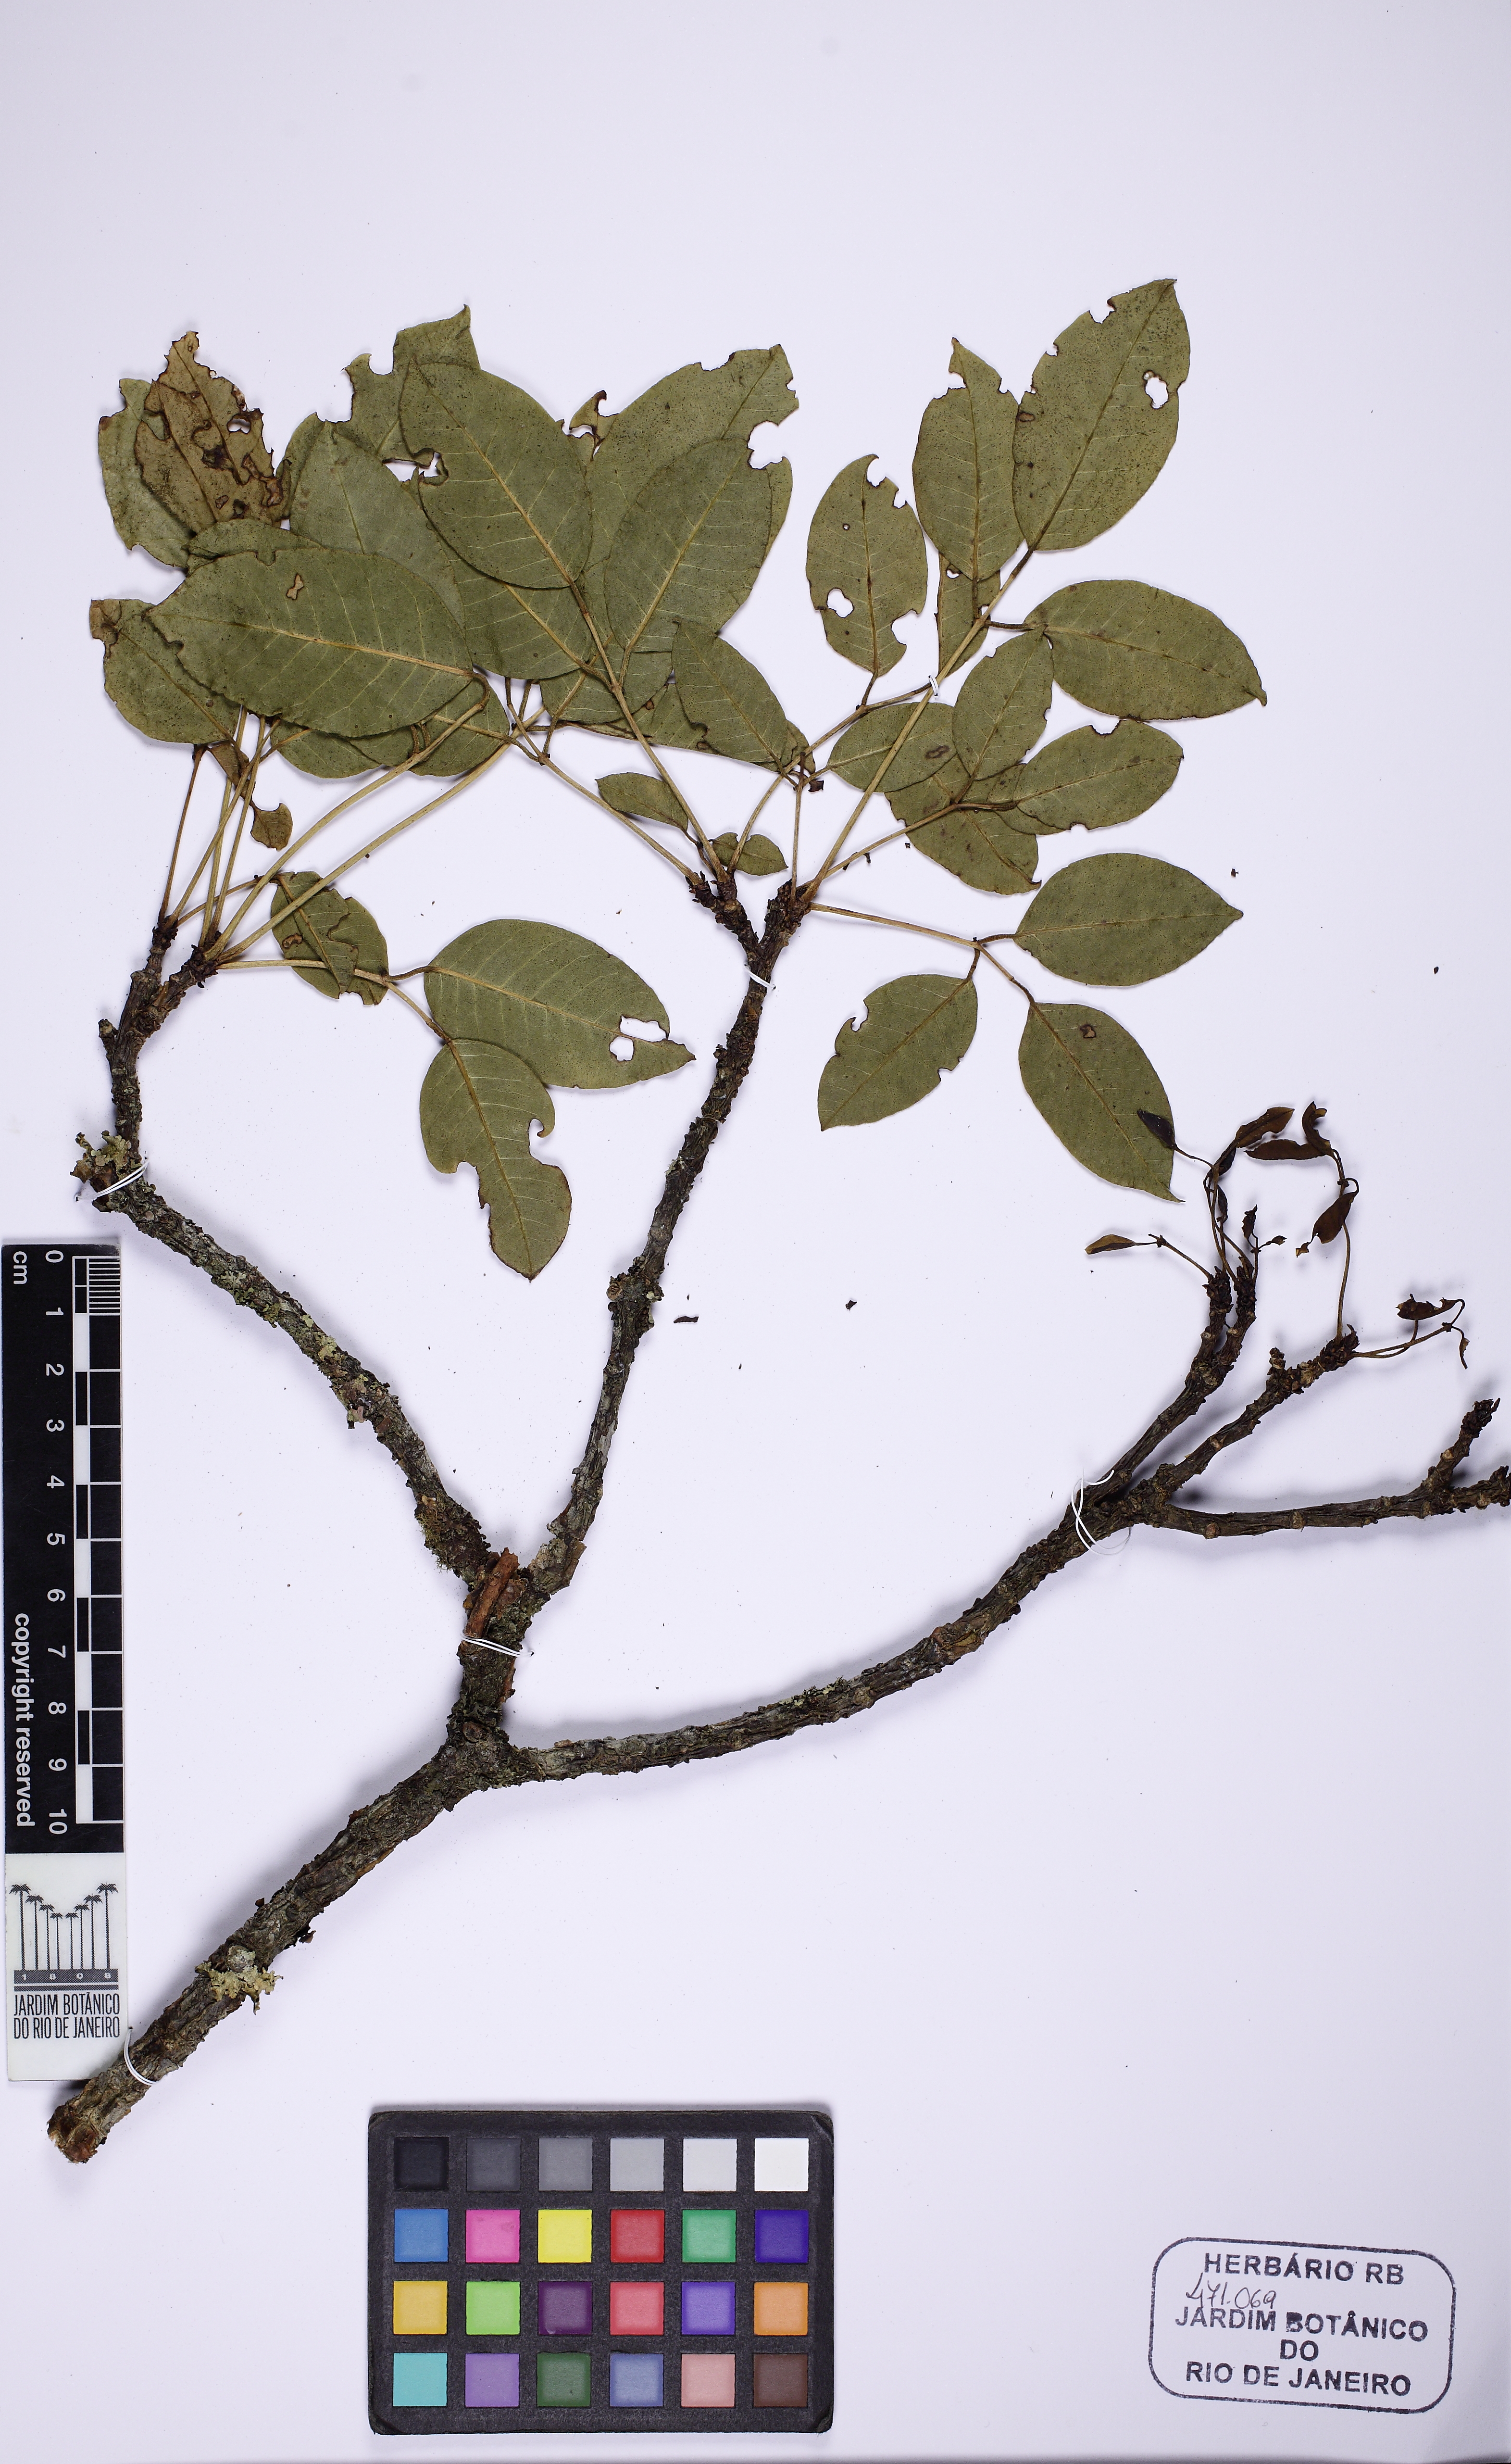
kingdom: Plantae
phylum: Tracheophyta
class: Magnoliopsida
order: Fabales
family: Fabaceae
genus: Erythrina
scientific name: Erythrina falcata
